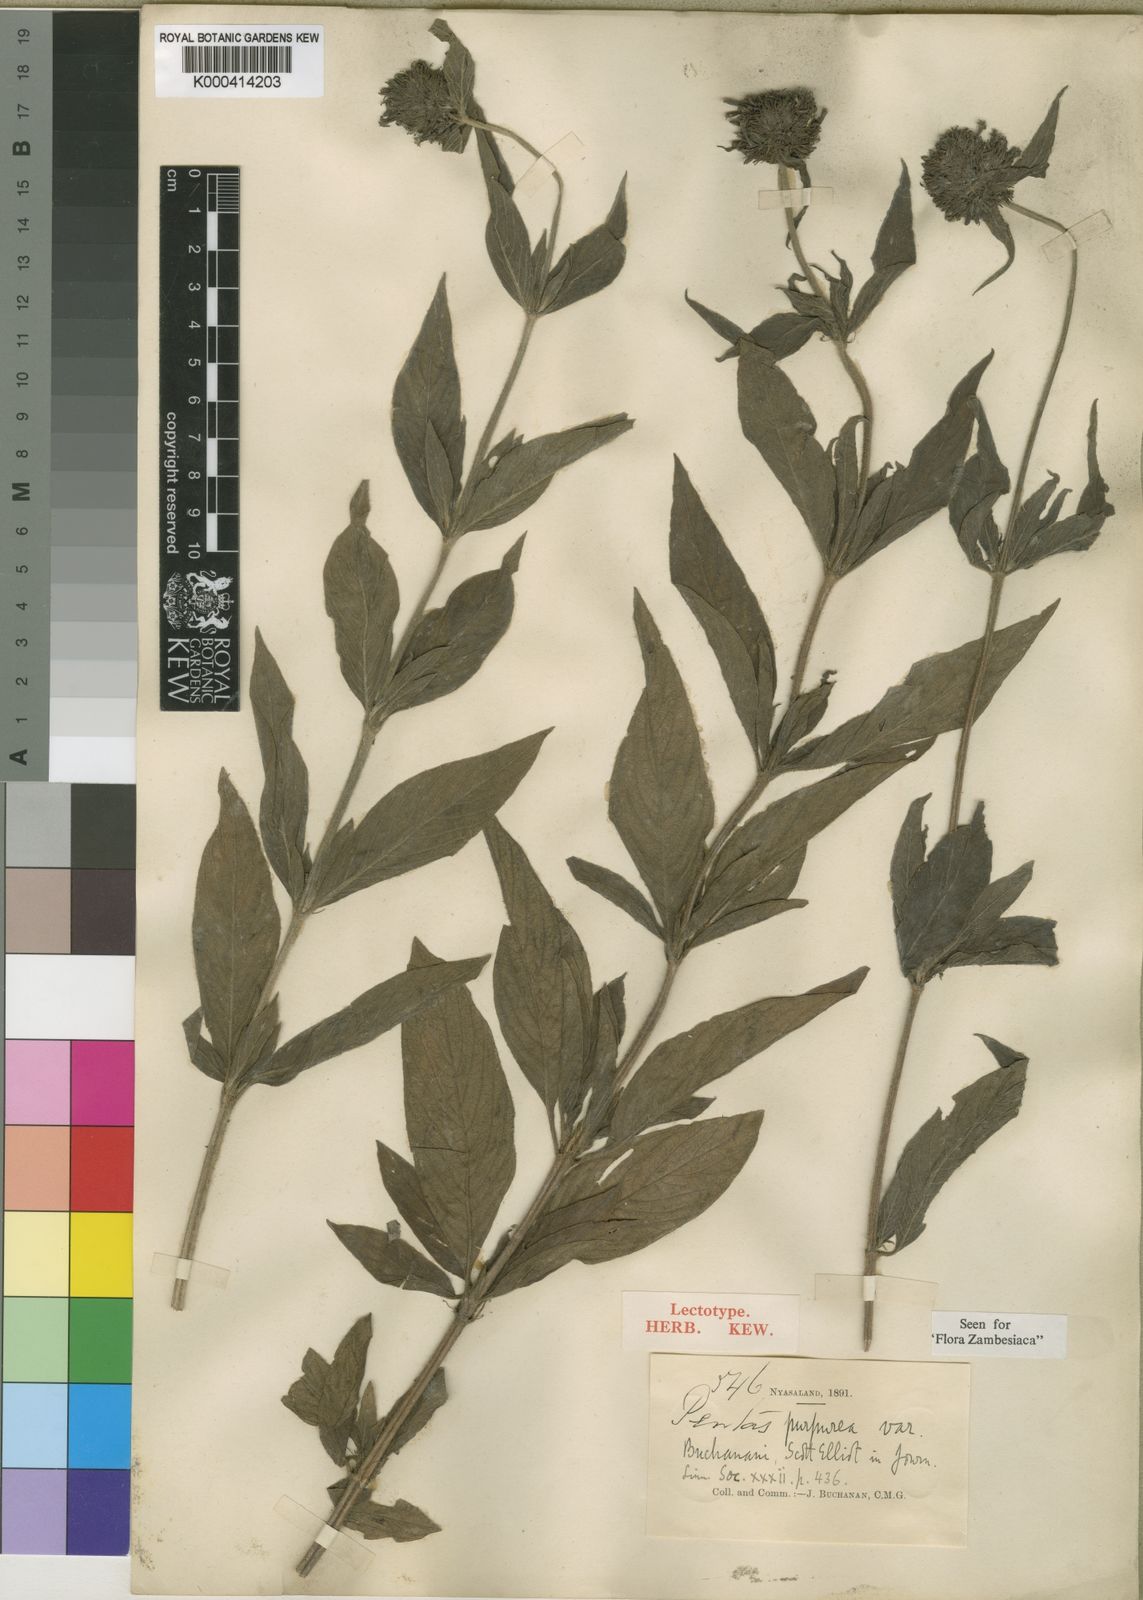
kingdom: Plantae
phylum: Tracheophyta
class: Magnoliopsida
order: Gentianales
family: Rubiaceae
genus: Pentas
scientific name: Pentas purpurea
